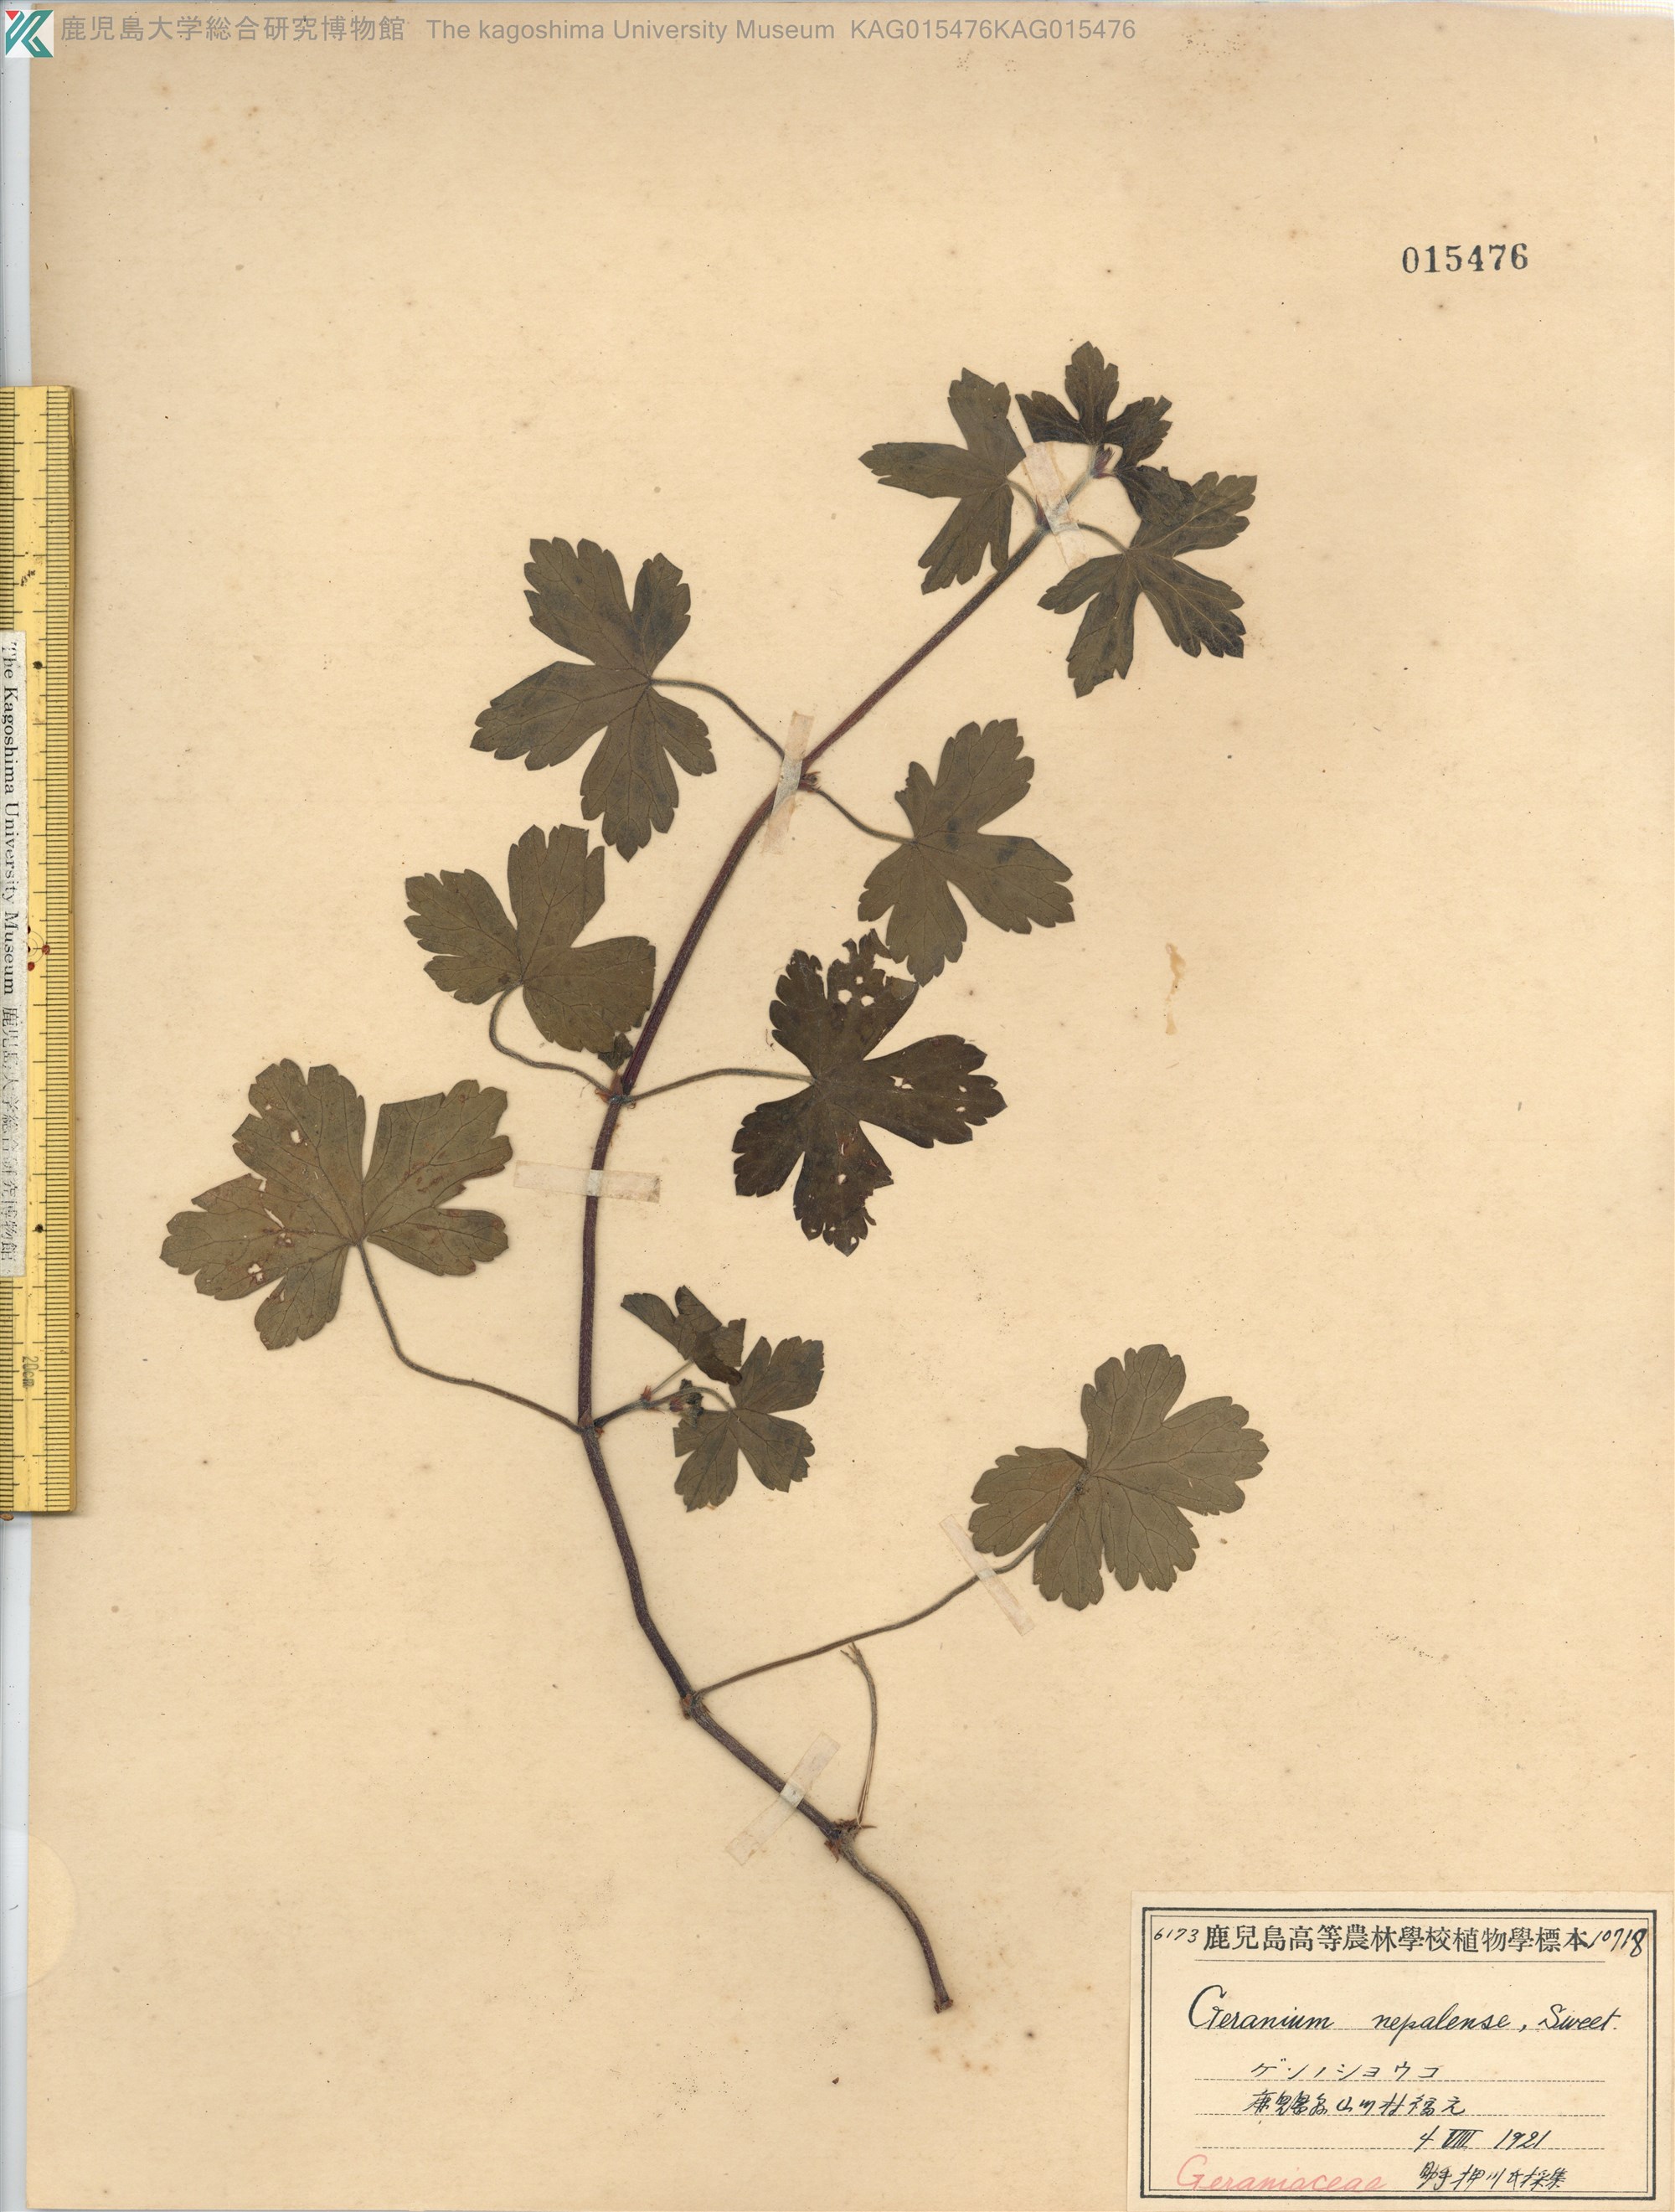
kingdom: Plantae
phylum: Tracheophyta
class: Magnoliopsida
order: Geraniales
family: Geraniaceae
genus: Geranium
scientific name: Geranium thunbergii
